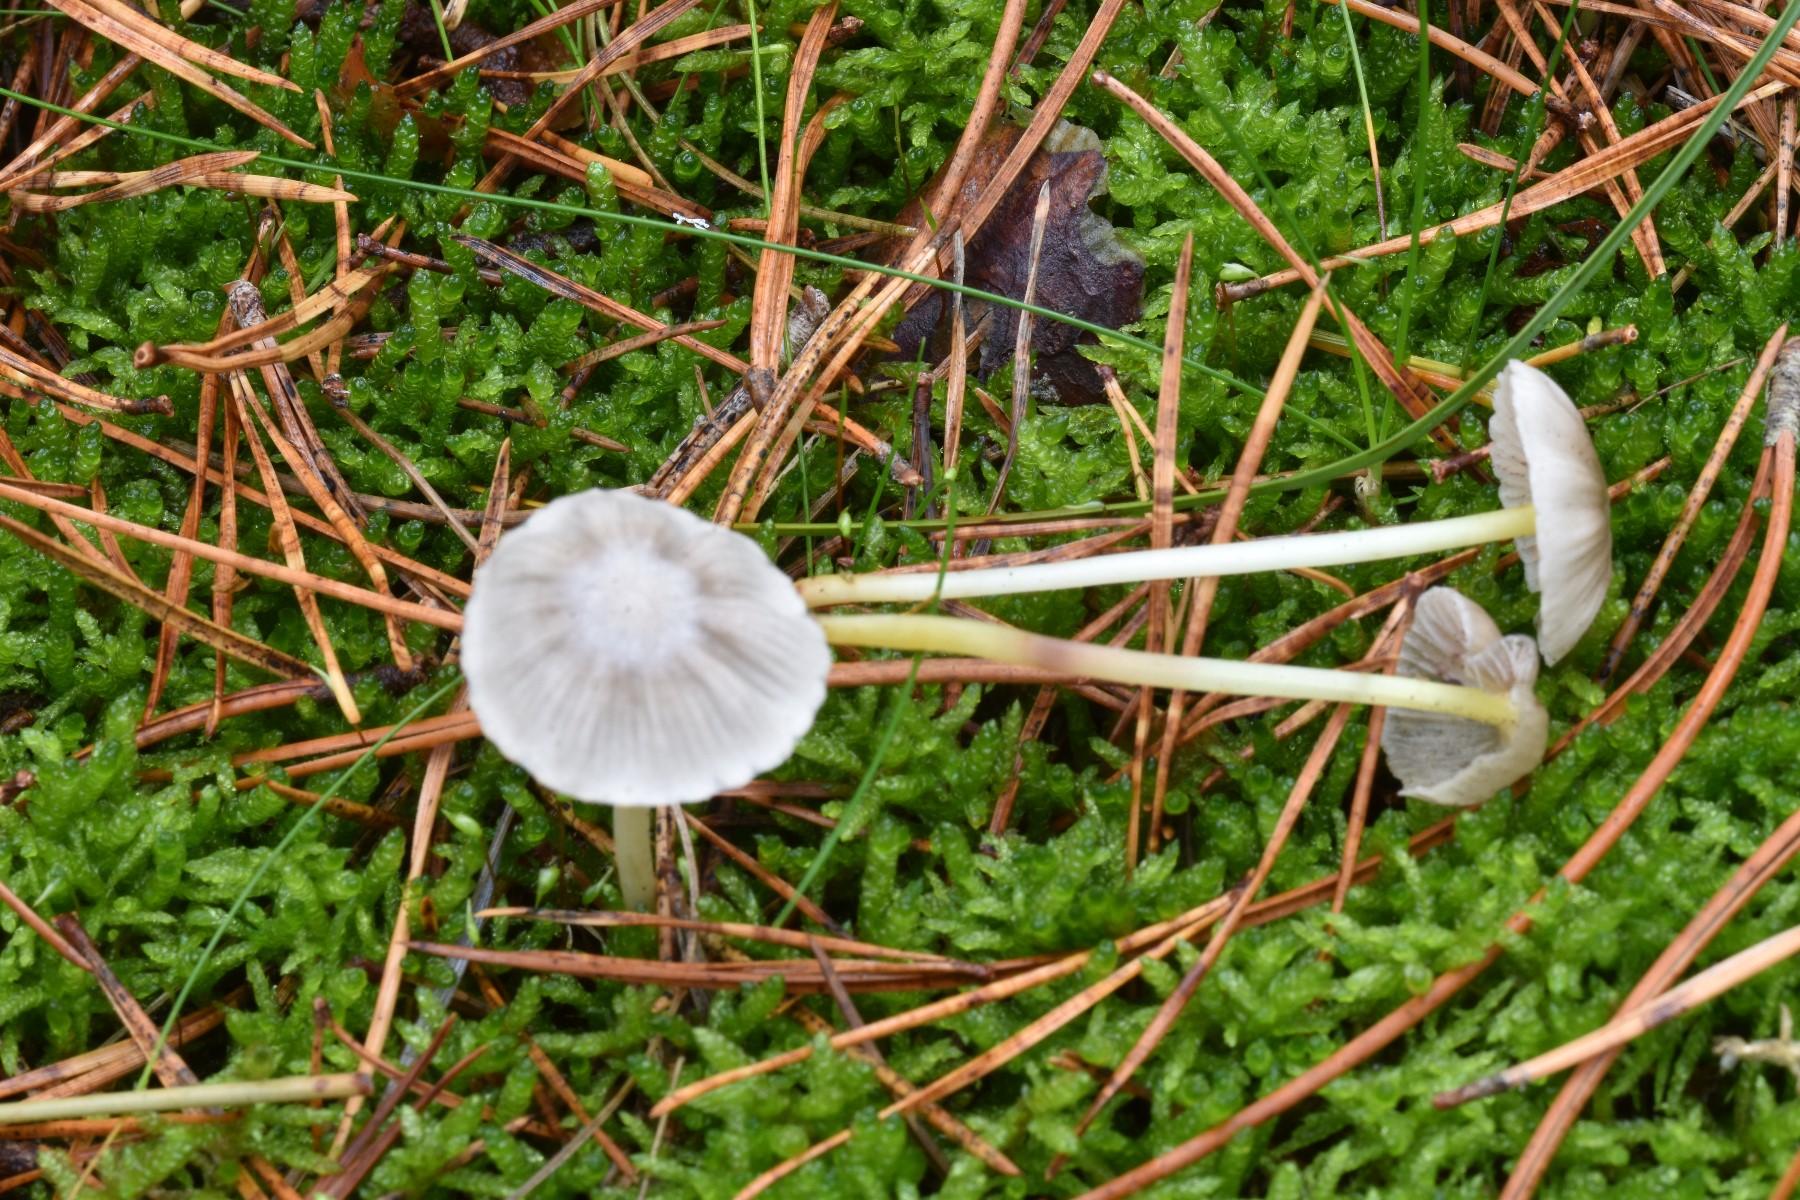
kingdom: Fungi
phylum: Basidiomycota
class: Agaricomycetes
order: Agaricales
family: Mycenaceae
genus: Mycena
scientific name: Mycena epipterygia
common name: gulstokket huesvamp
